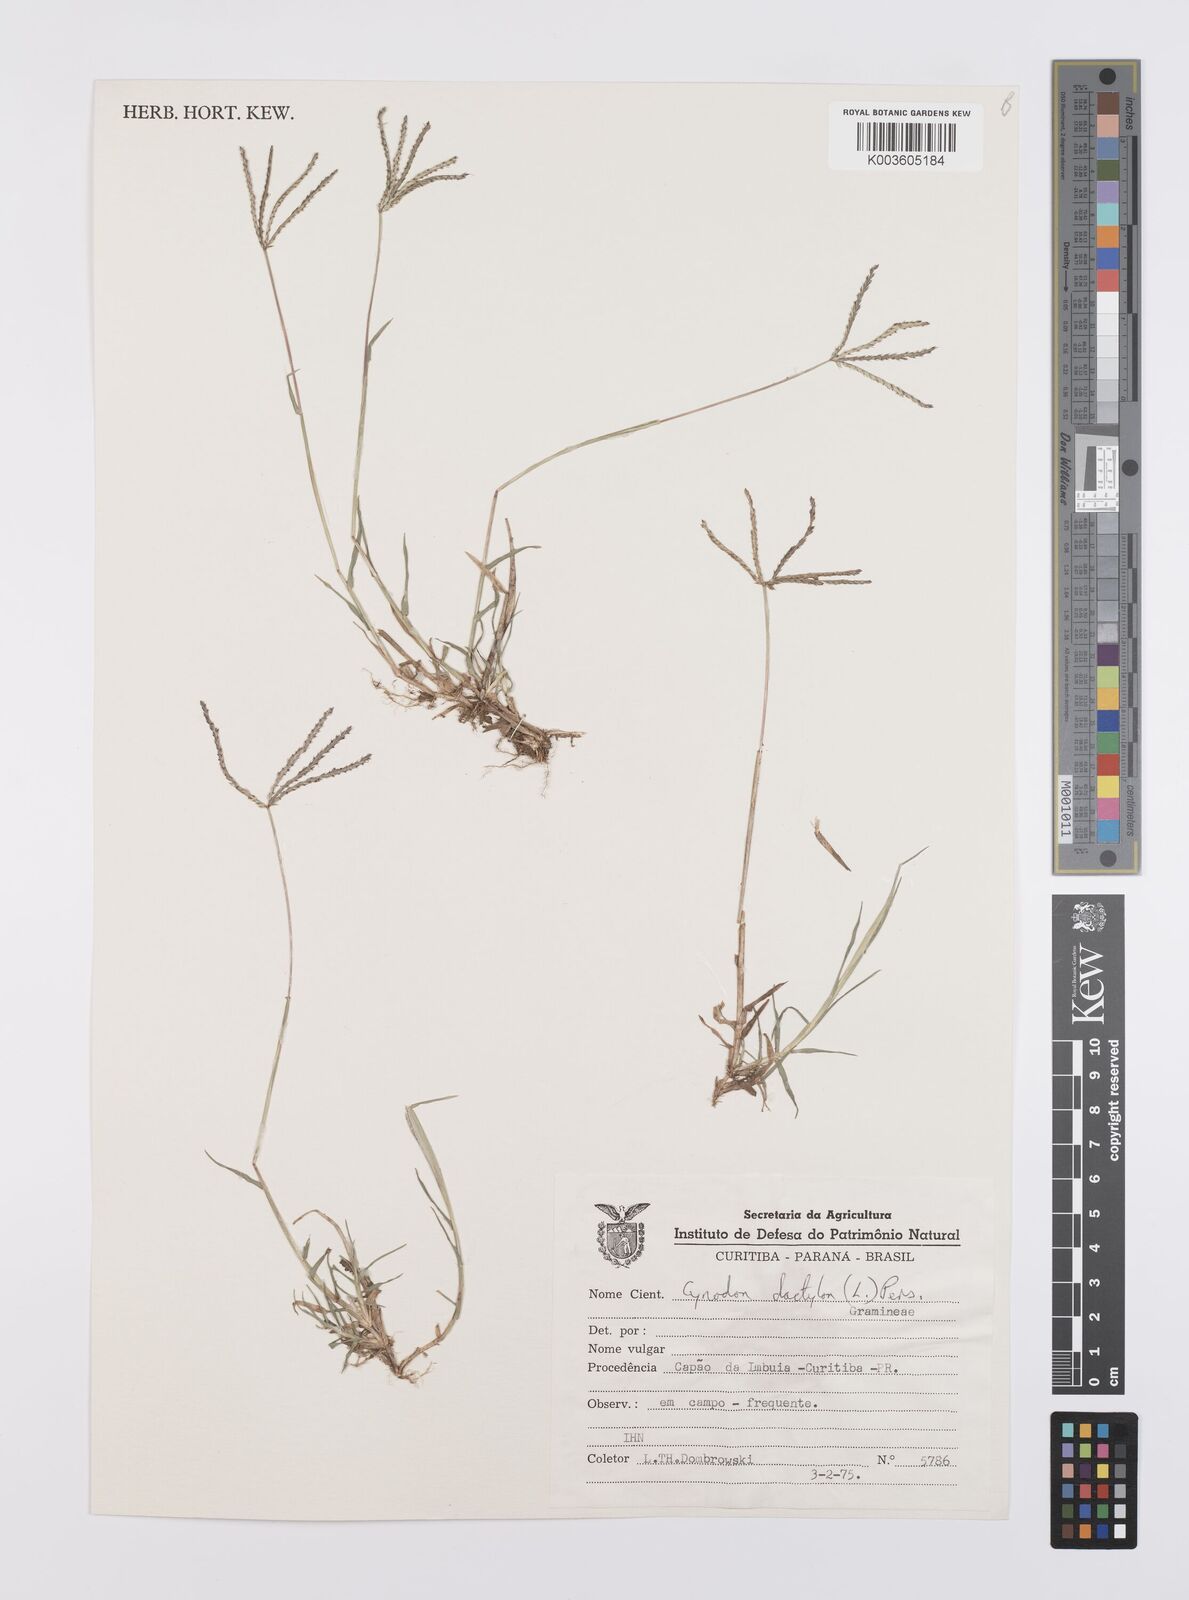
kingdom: Plantae
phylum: Tracheophyta
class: Liliopsida
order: Poales
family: Poaceae
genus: Cynodon
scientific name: Cynodon dactylon
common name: Bermuda grass
